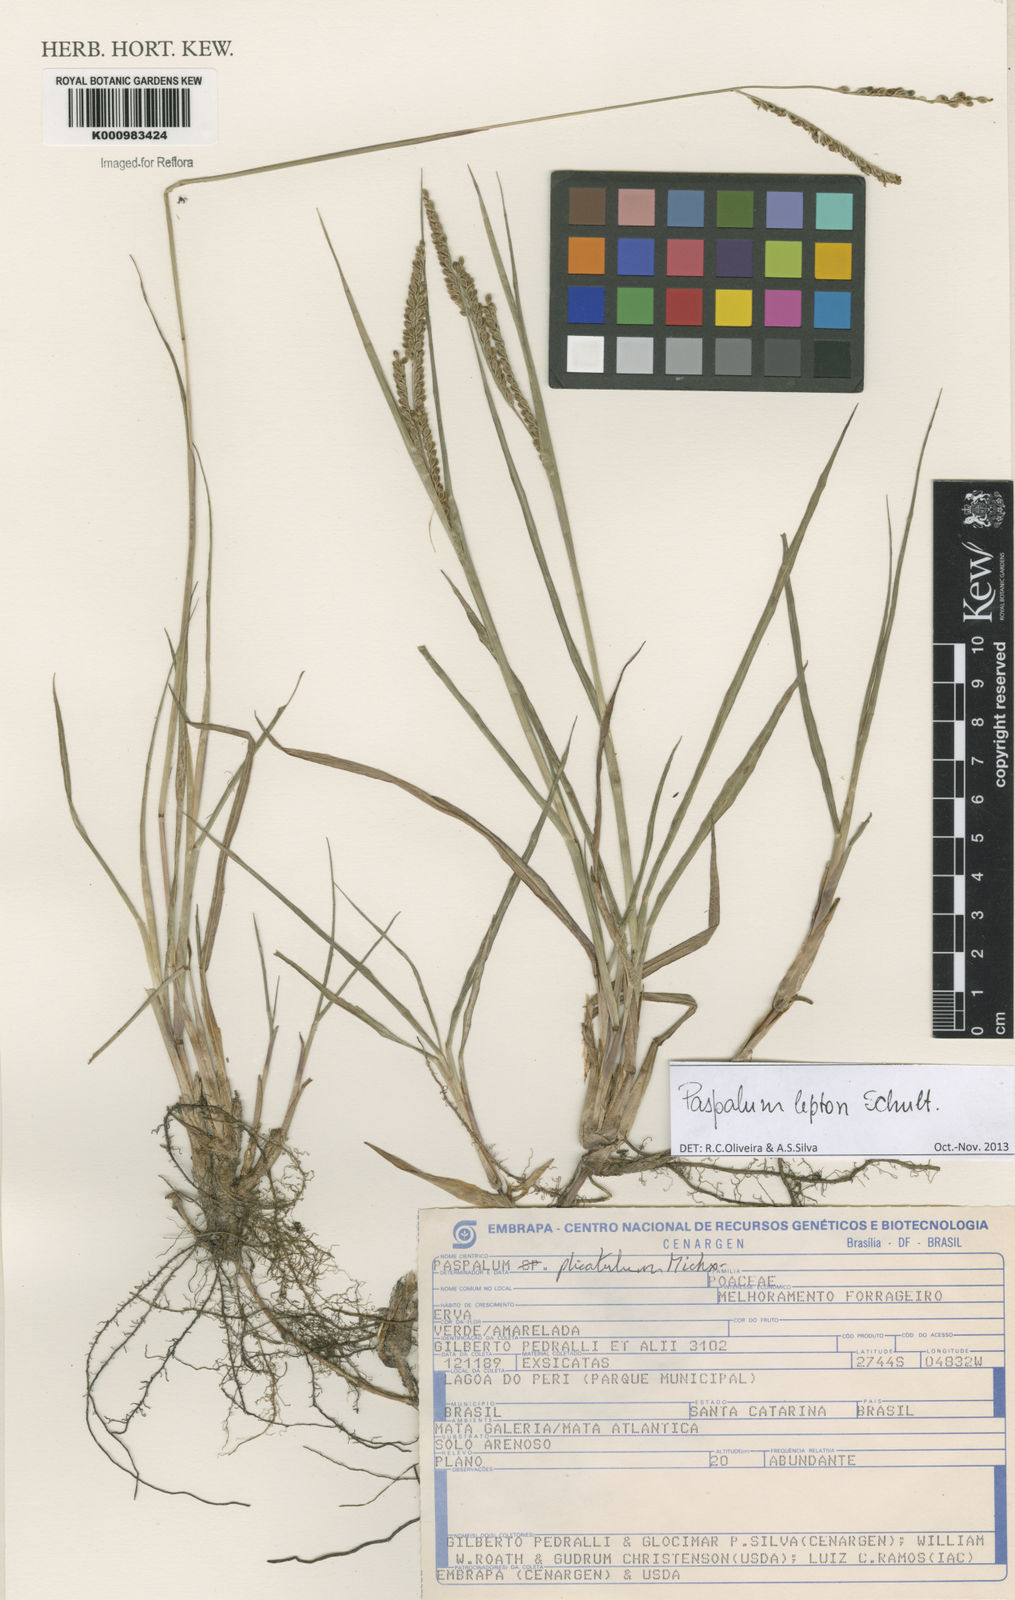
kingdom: Plantae
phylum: Tracheophyta
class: Liliopsida
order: Poales
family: Poaceae
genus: Paspalum
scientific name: Paspalum lepton
